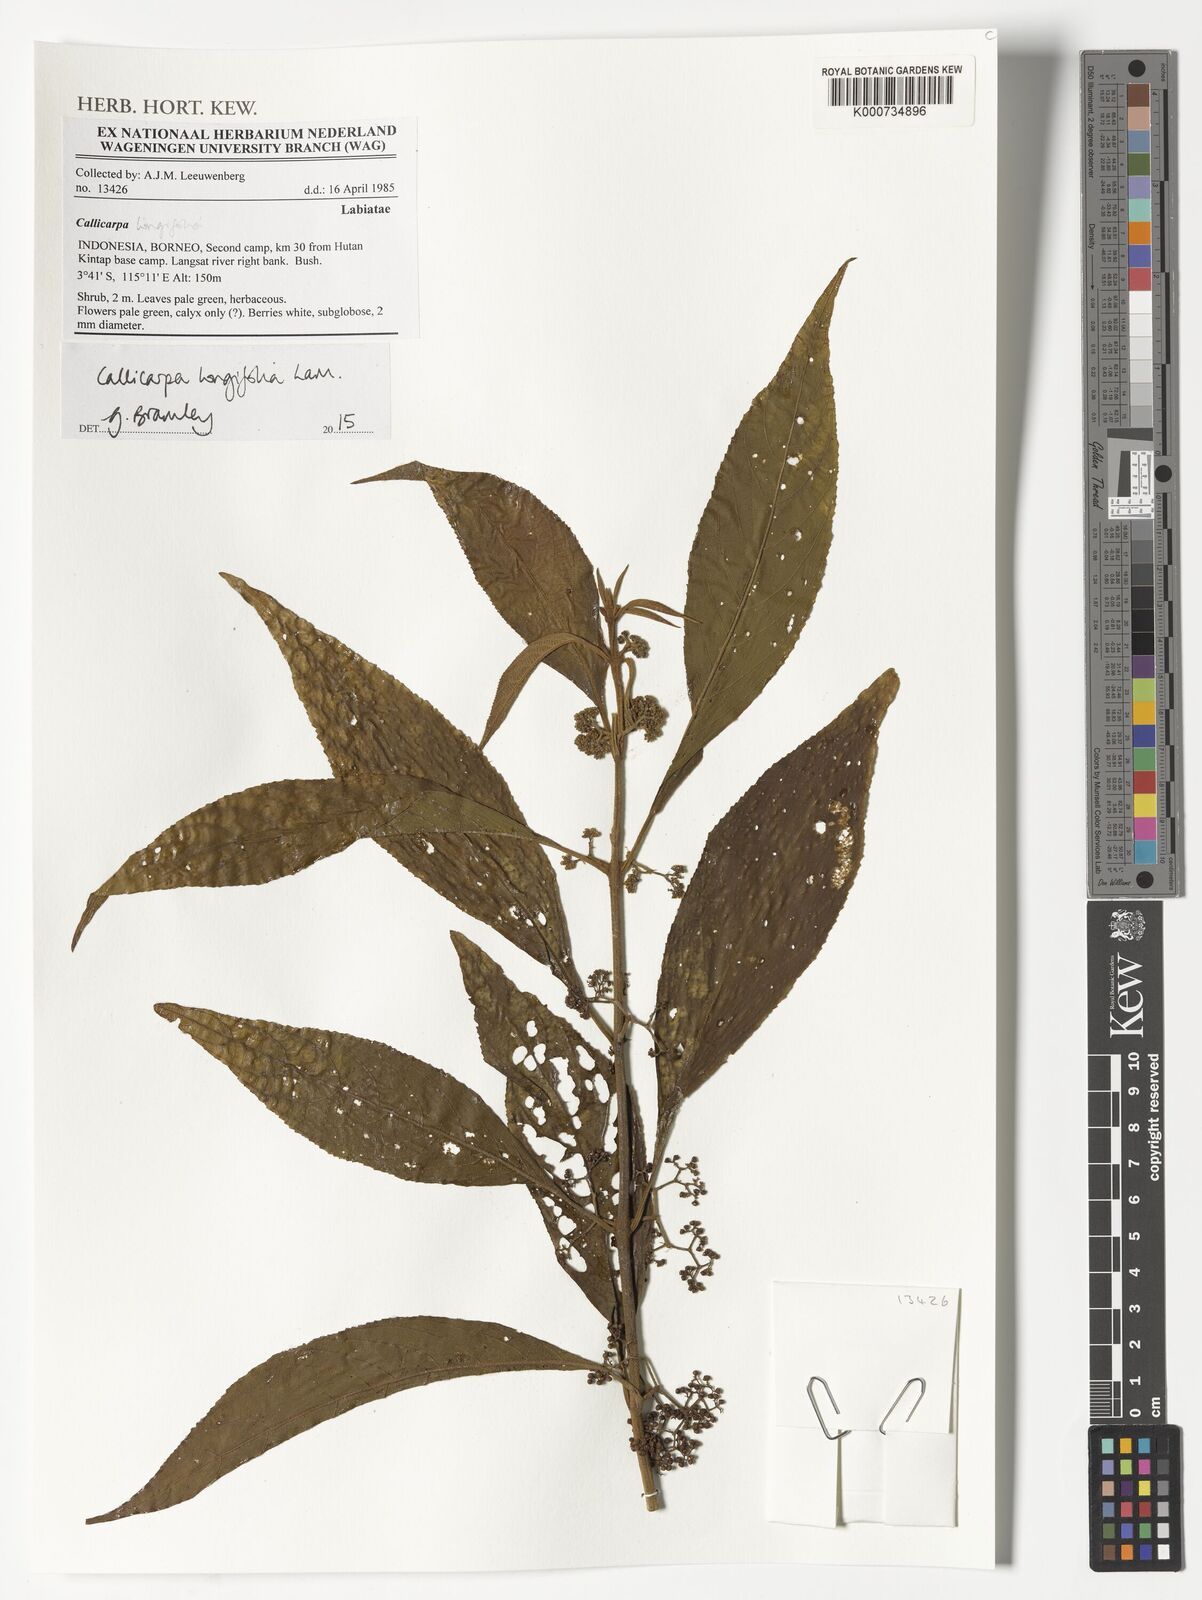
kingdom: Plantae
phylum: Tracheophyta
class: Magnoliopsida
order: Lamiales
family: Lamiaceae
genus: Callicarpa
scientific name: Callicarpa longifolia
